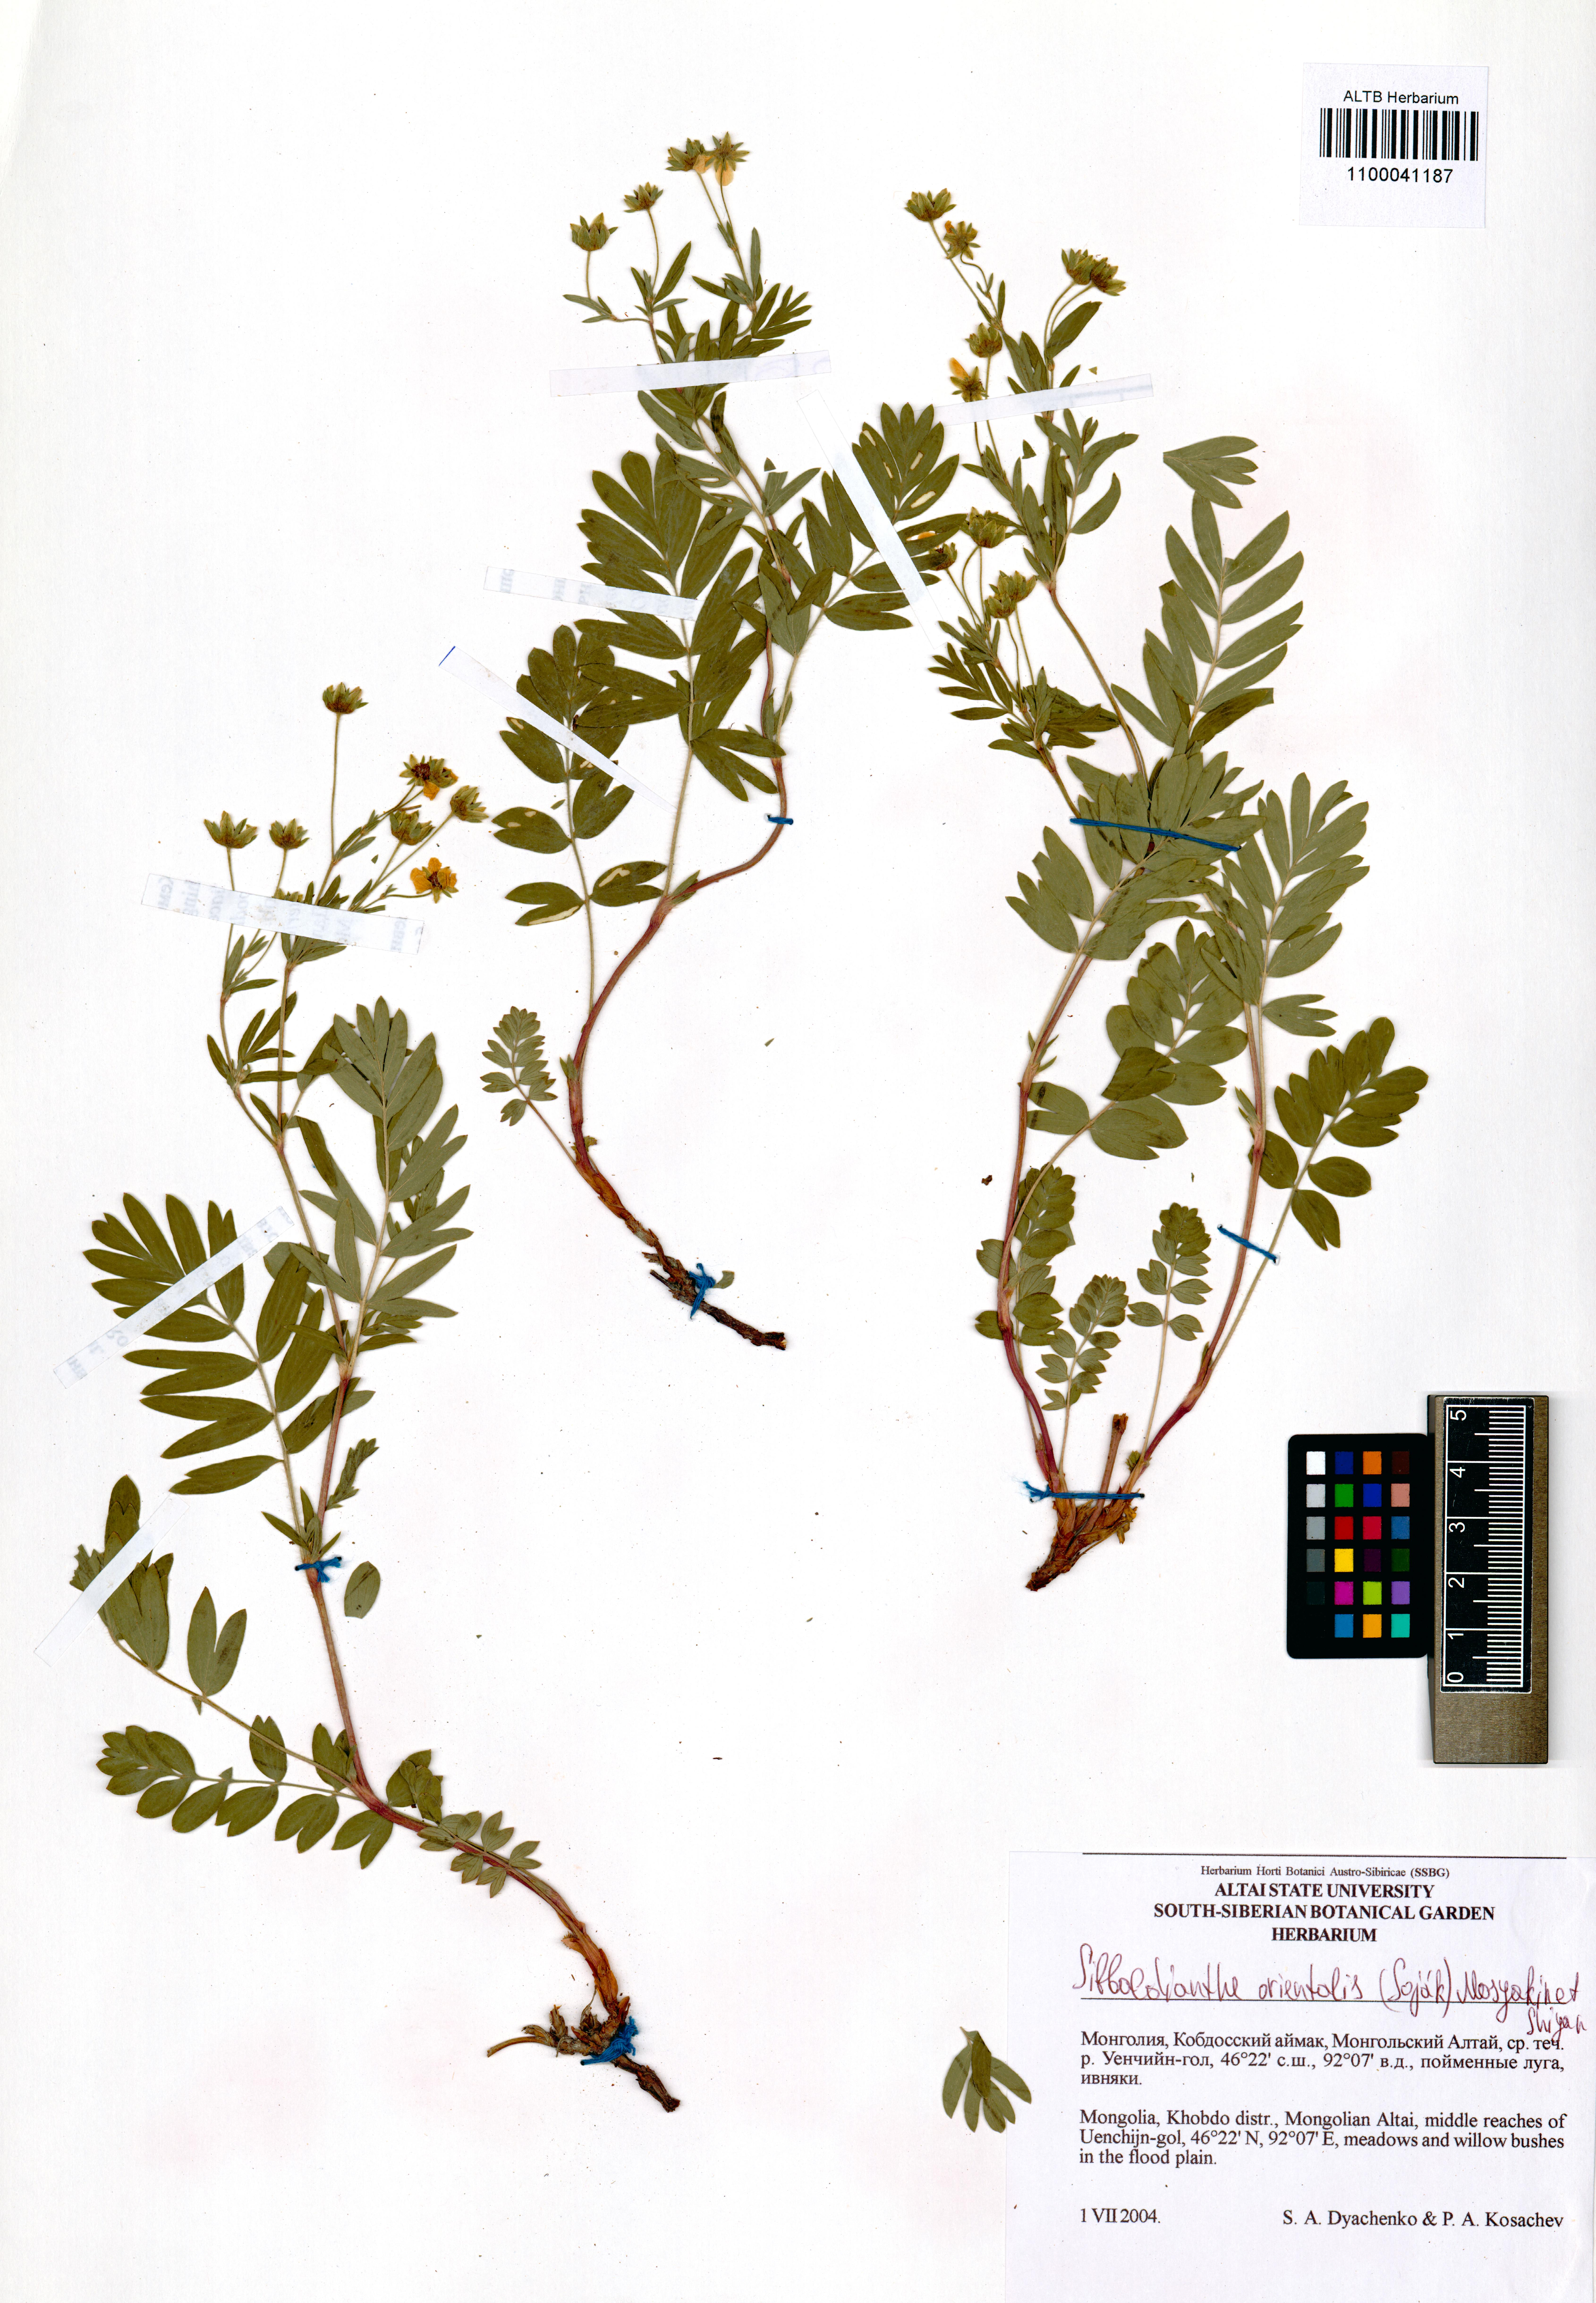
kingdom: Plantae
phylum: Tracheophyta
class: Magnoliopsida
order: Rosales
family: Rosaceae
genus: Sibbaldianthe
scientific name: Sibbaldianthe orientalis
